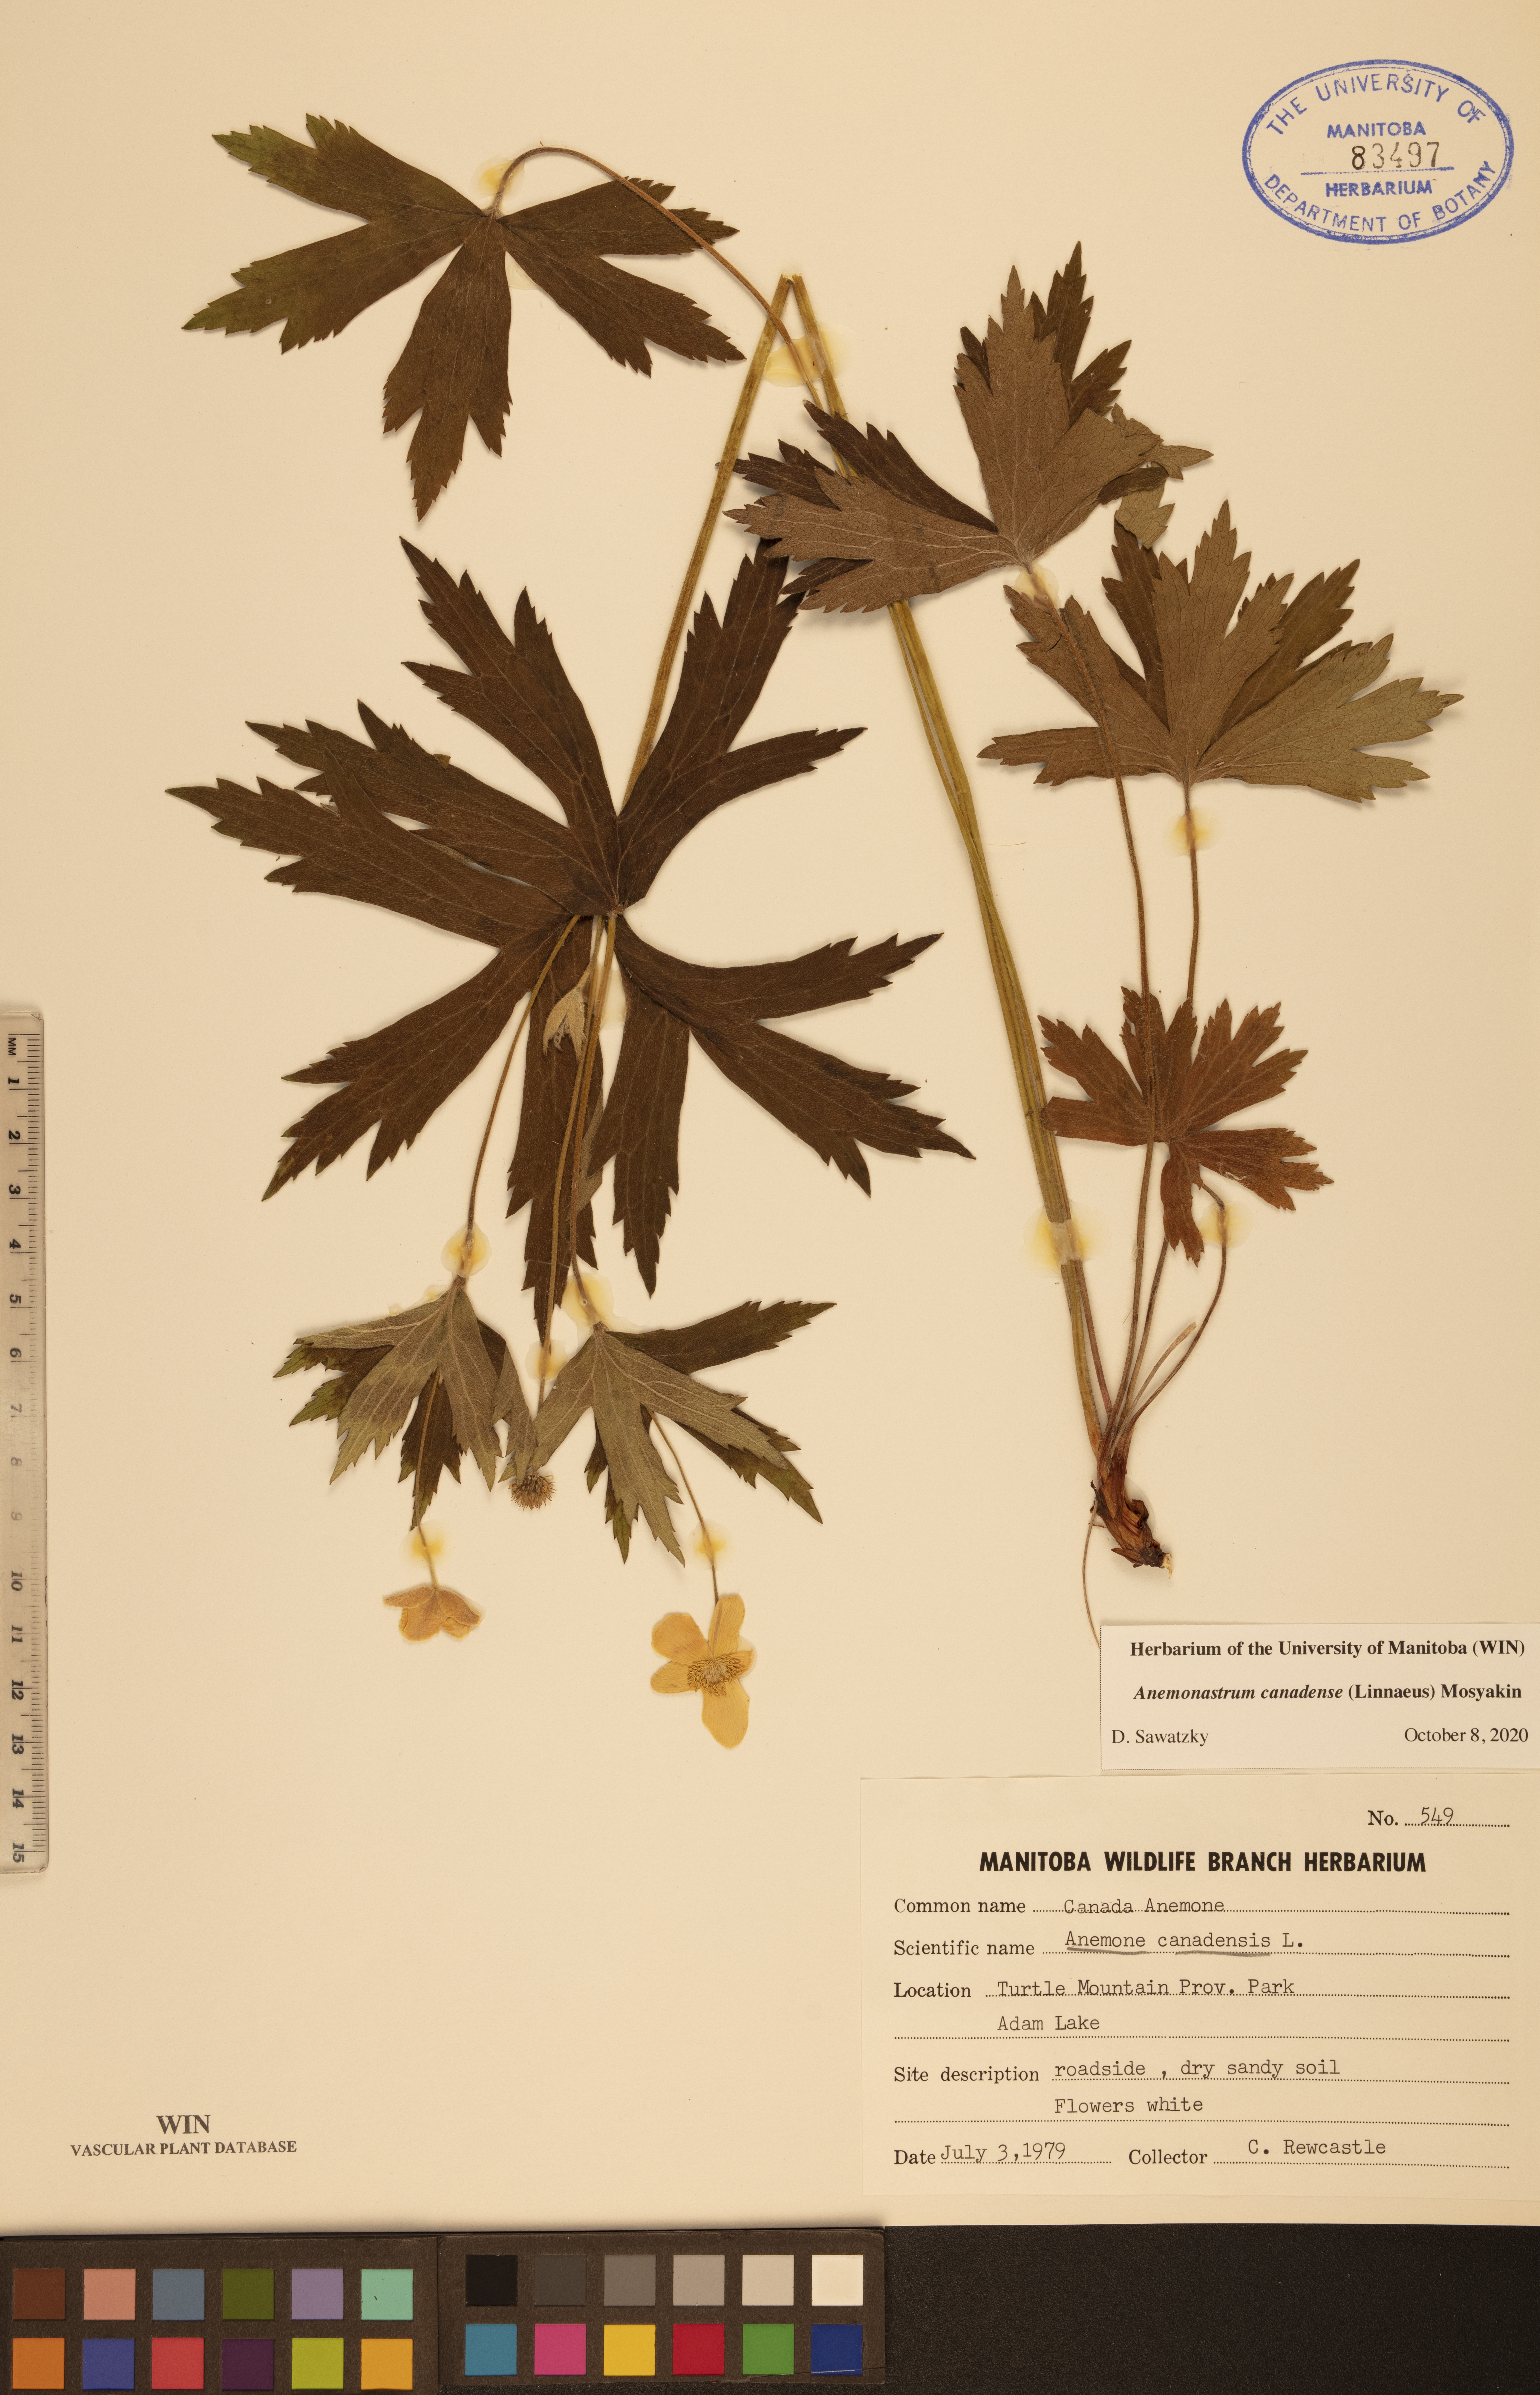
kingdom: Plantae
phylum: Tracheophyta
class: Magnoliopsida
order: Ranunculales
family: Ranunculaceae
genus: Anemonastrum
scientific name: Anemonastrum canadense
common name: Canada anemone
